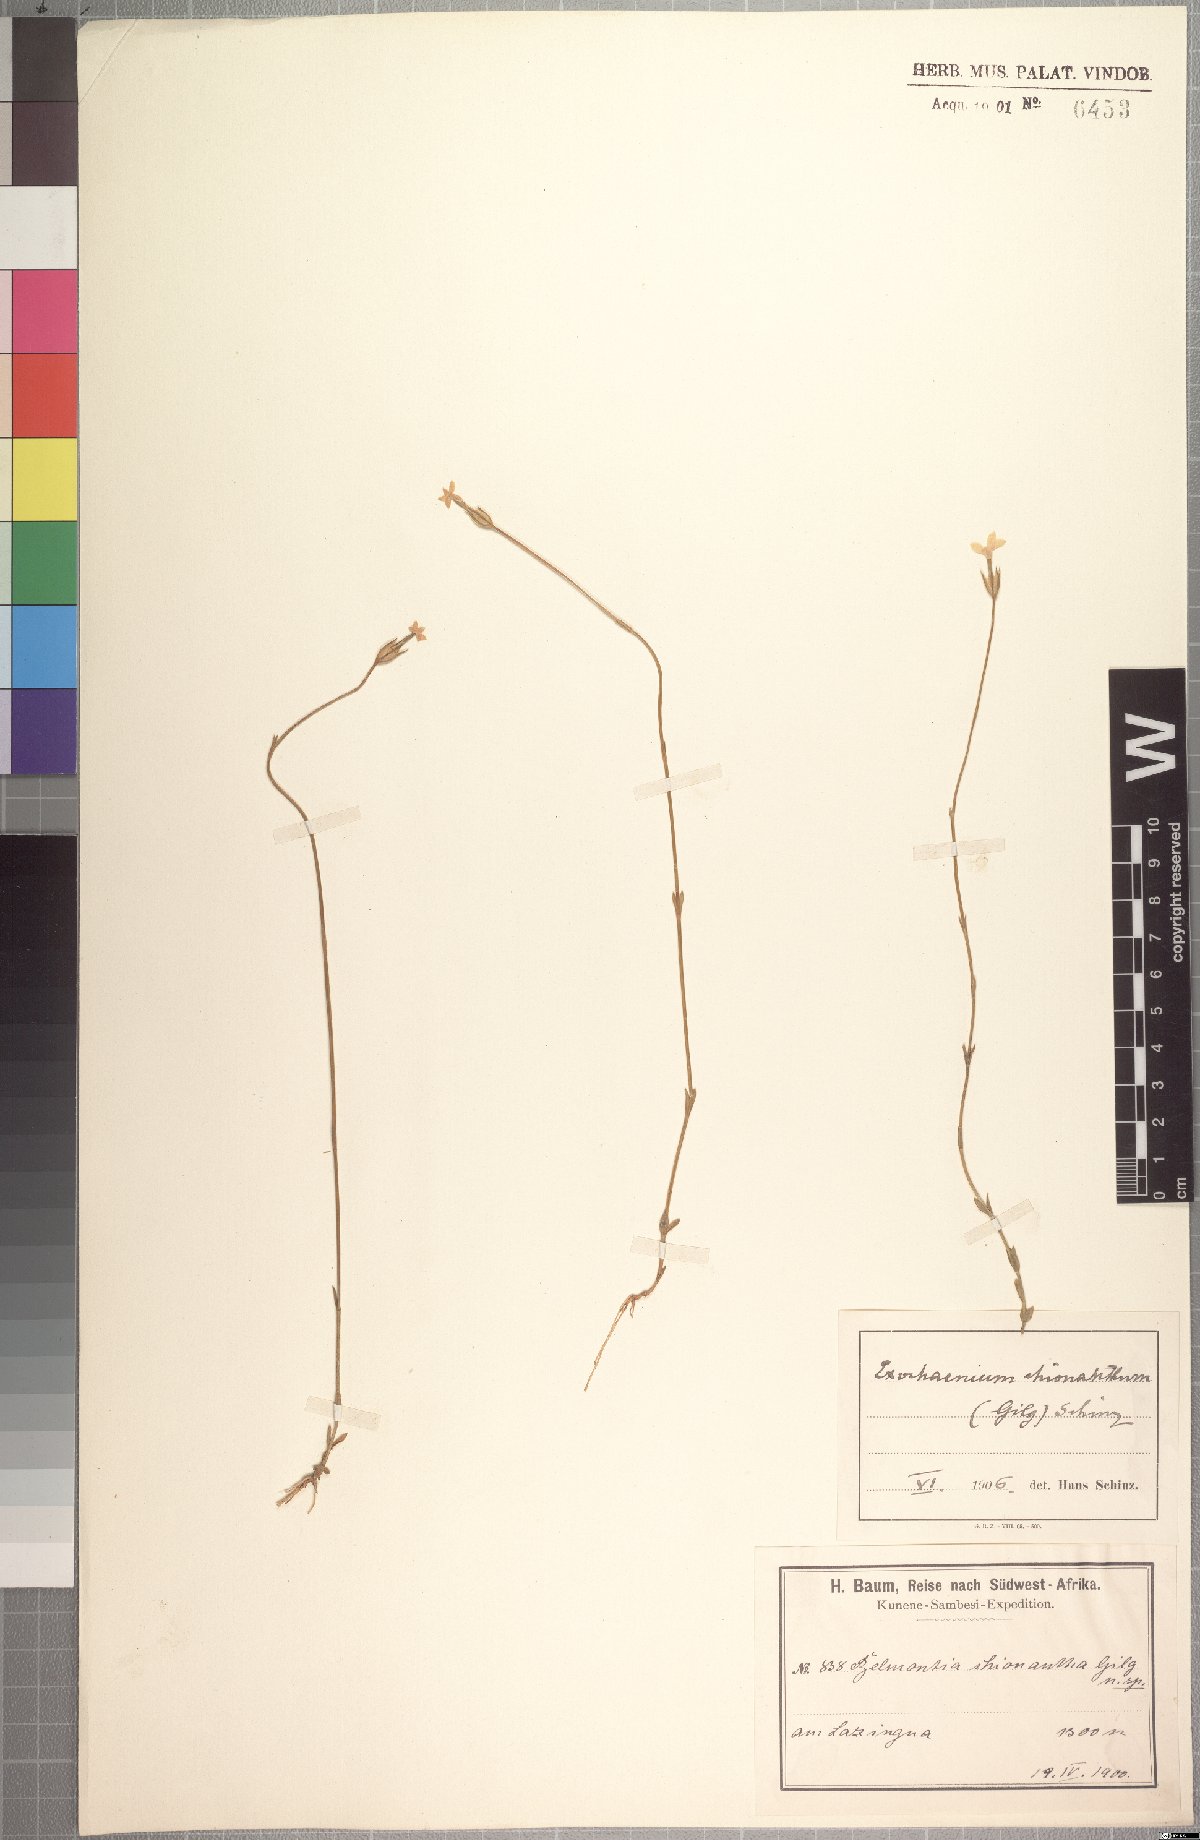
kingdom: Plantae
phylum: Tracheophyta
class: Magnoliopsida
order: Gentianales
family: Gentianaceae
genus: Exochaenium
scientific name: Exochaenium teuszii
